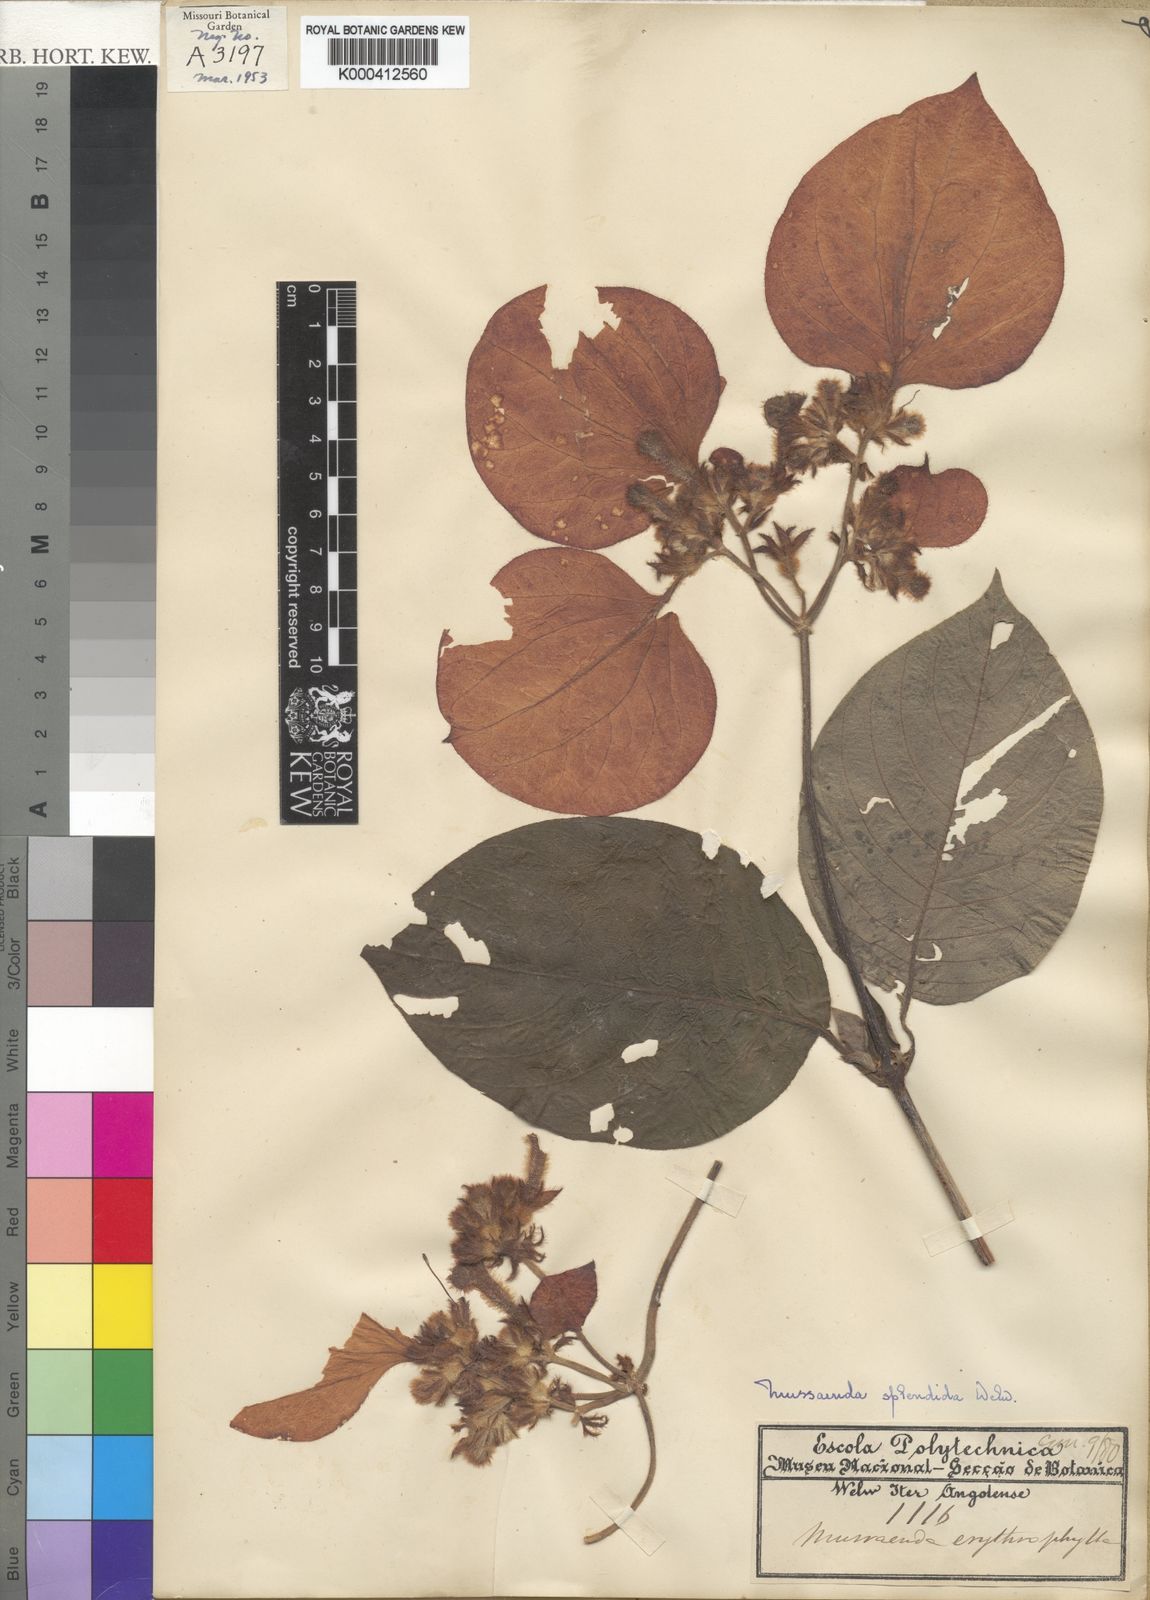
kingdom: Plantae
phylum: Tracheophyta
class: Magnoliopsida
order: Gentianales
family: Rubiaceae
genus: Mussaenda
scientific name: Mussaenda erythrophylla
